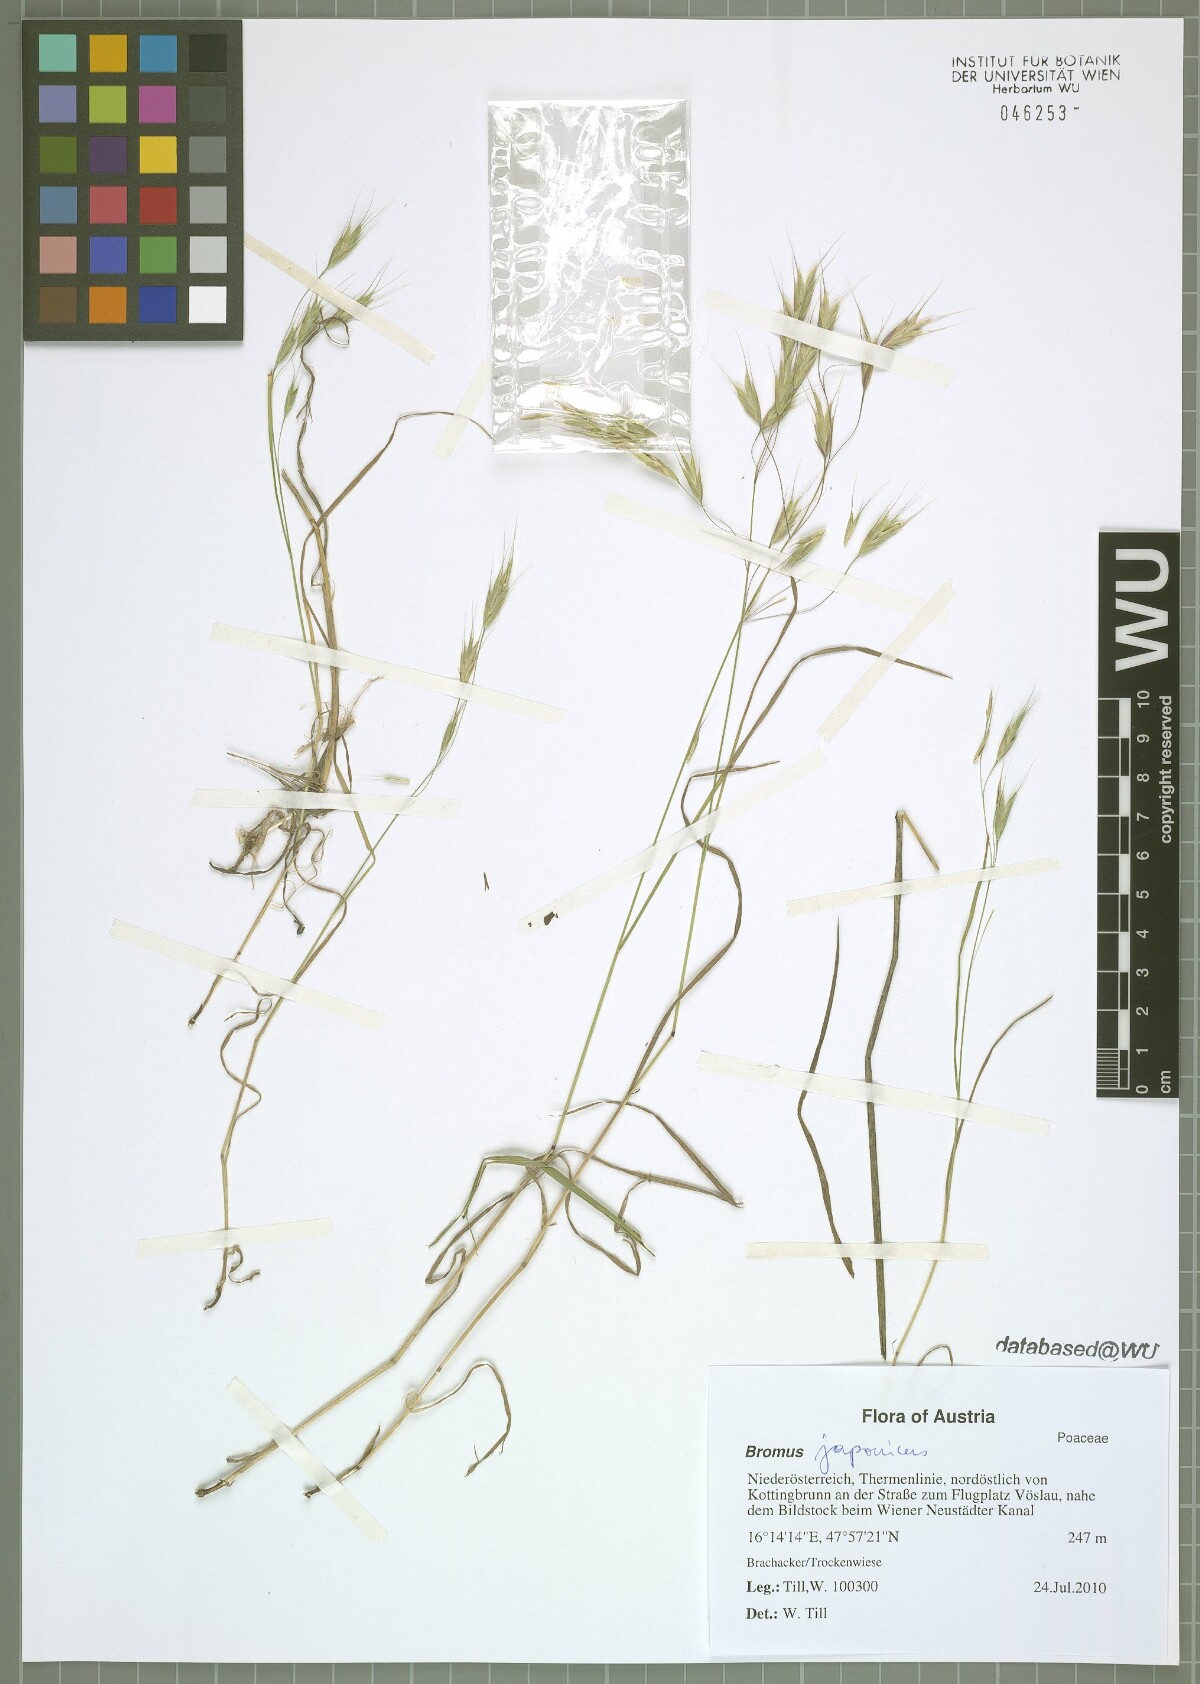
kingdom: Plantae
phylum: Tracheophyta
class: Liliopsida
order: Poales
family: Poaceae
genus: Bromus
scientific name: Bromus japonicus
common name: Japanese brome
